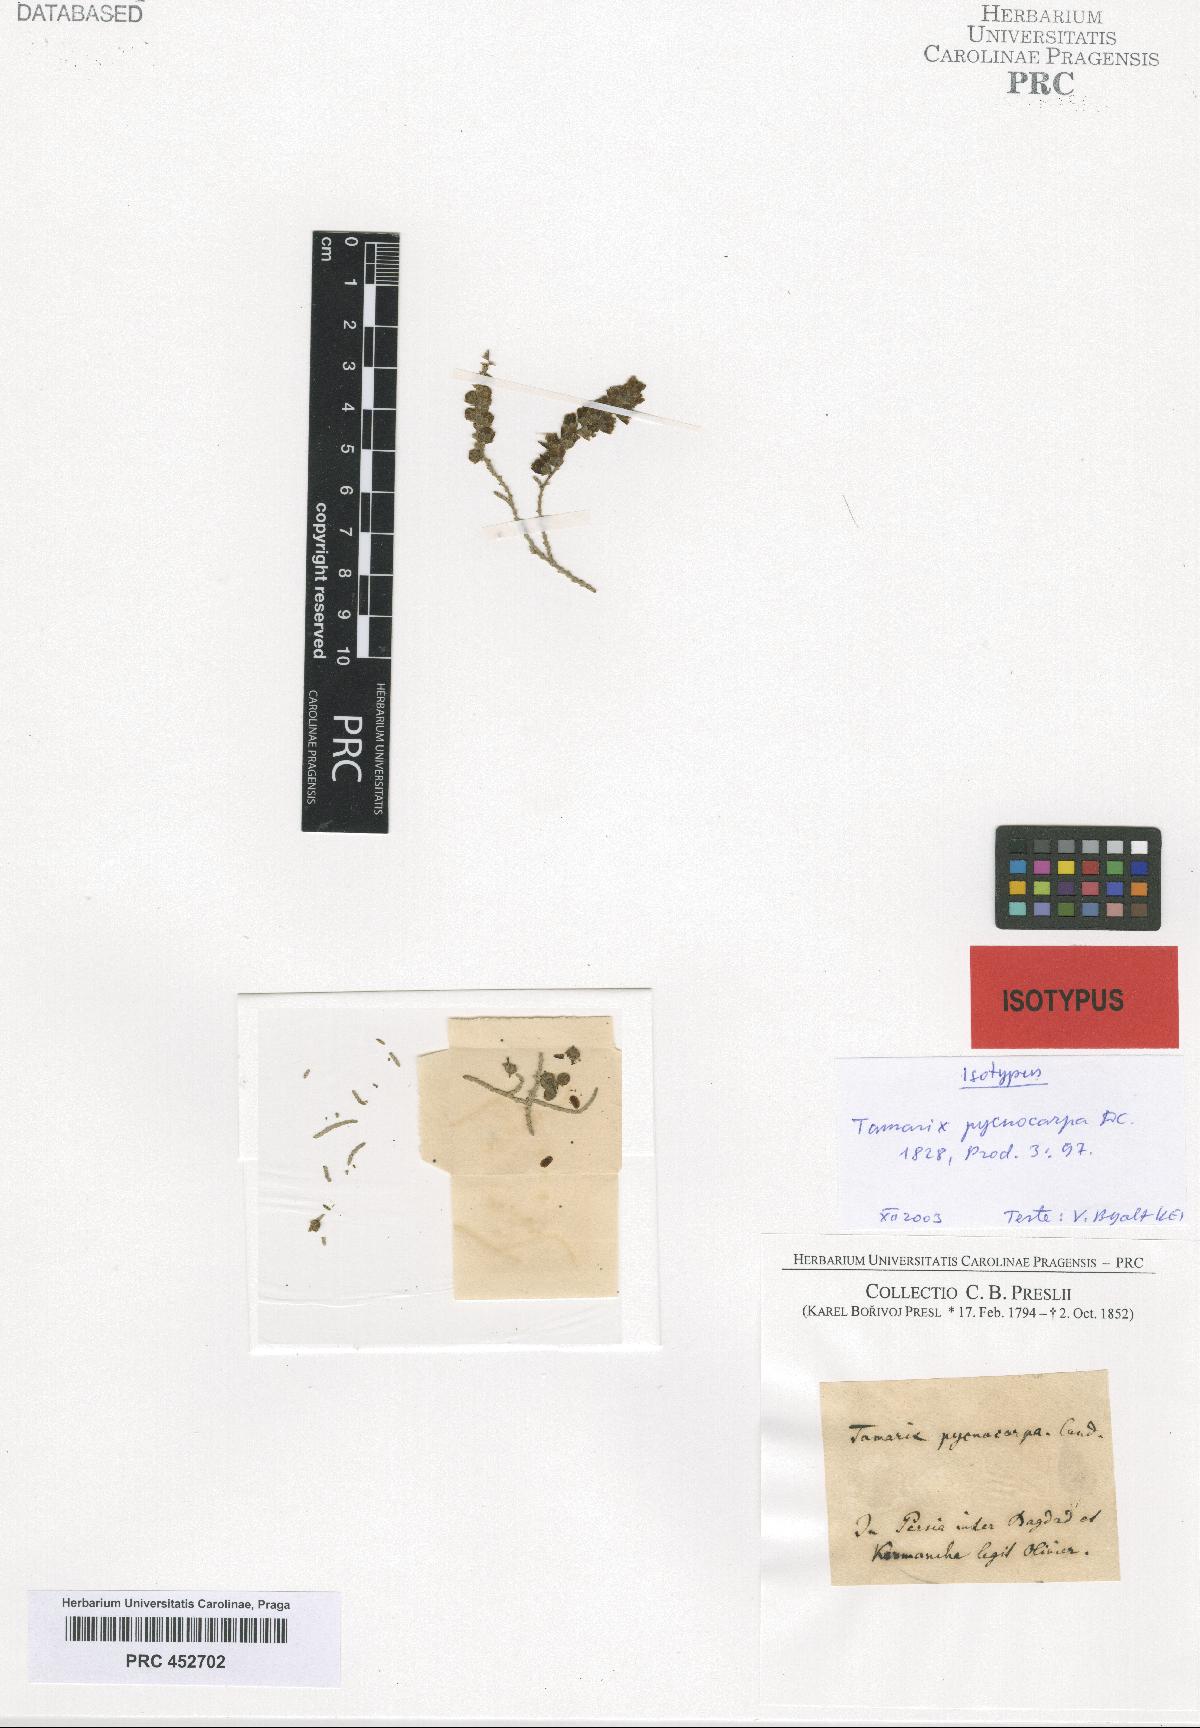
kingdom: Plantae
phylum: Tracheophyta
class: Magnoliopsida
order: Caryophyllales
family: Tamaricaceae
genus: Tamarix
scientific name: Tamarix pycnocarpa
